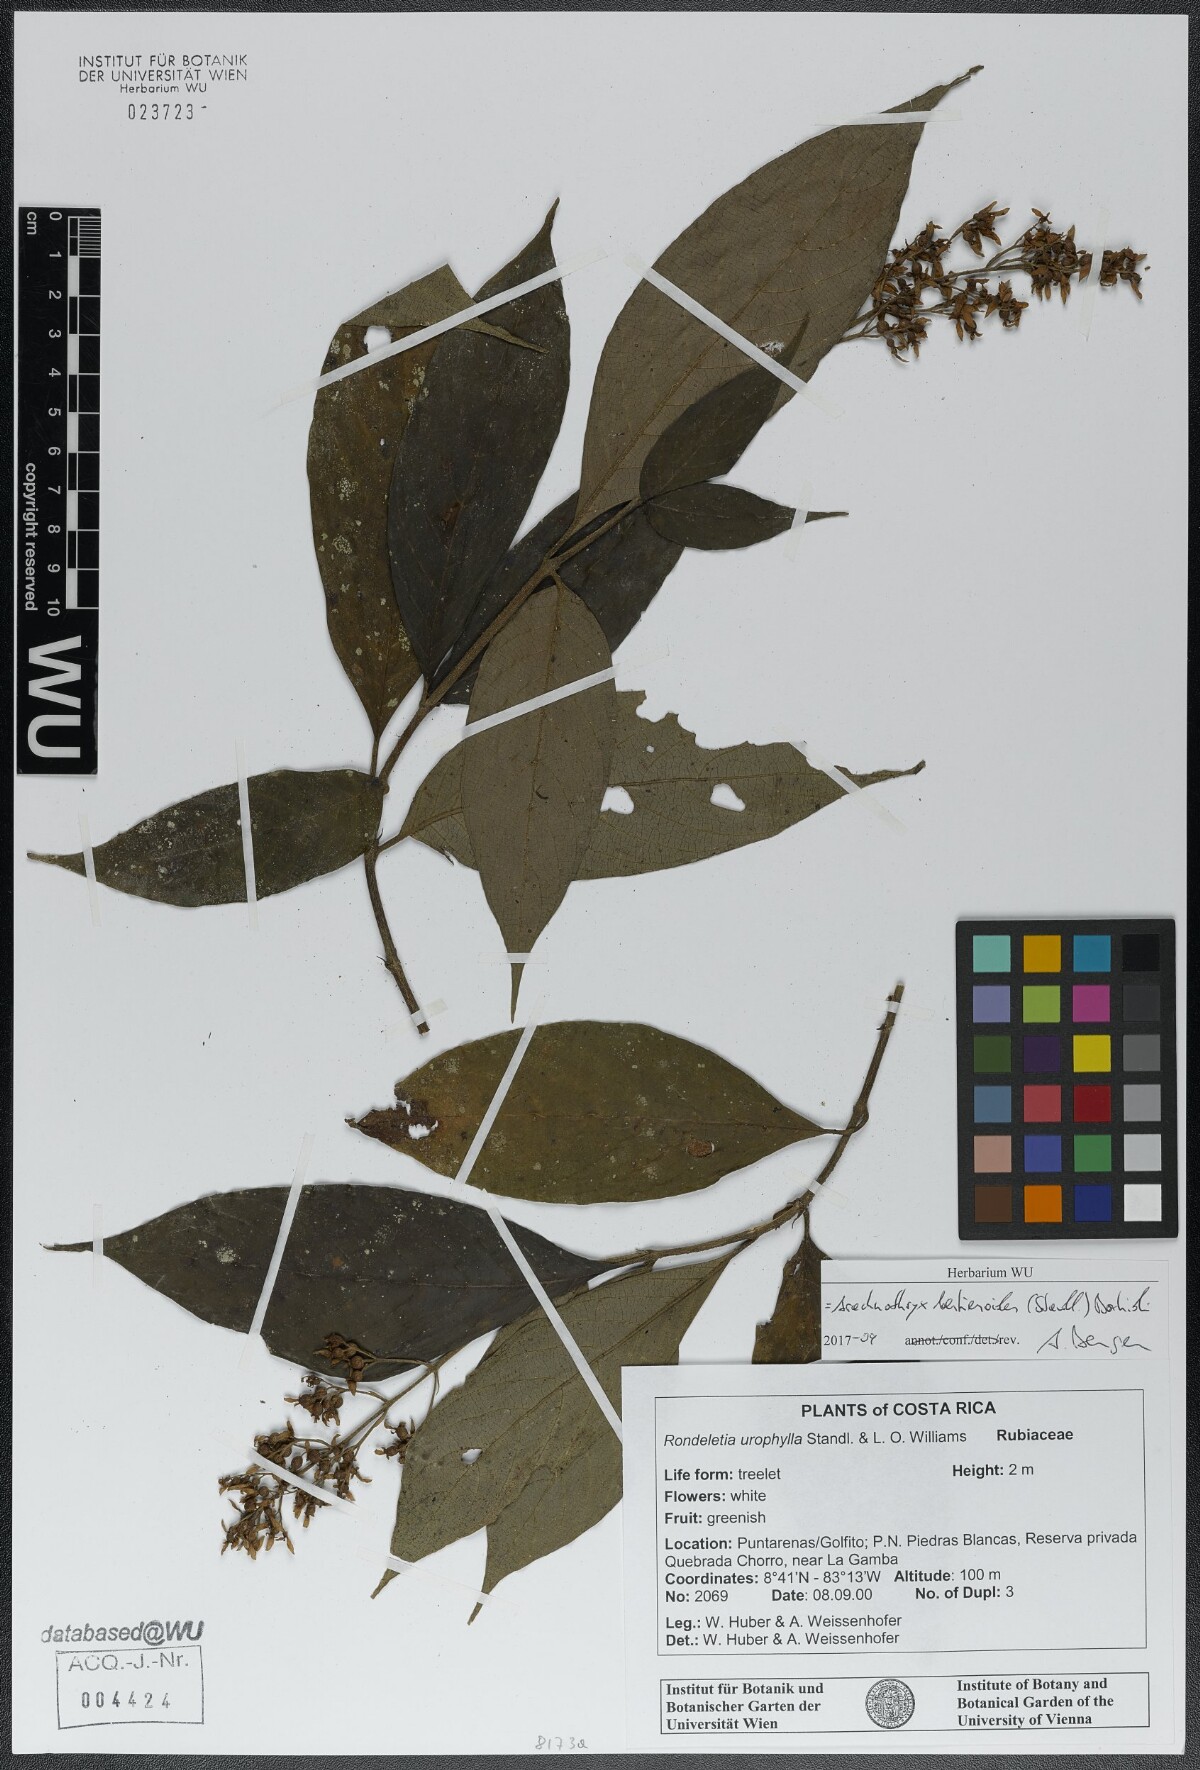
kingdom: Plantae
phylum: Tracheophyta
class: Magnoliopsida
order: Gentianales
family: Rubiaceae
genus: Arachnothryx
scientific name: Arachnothryx bertieroides
